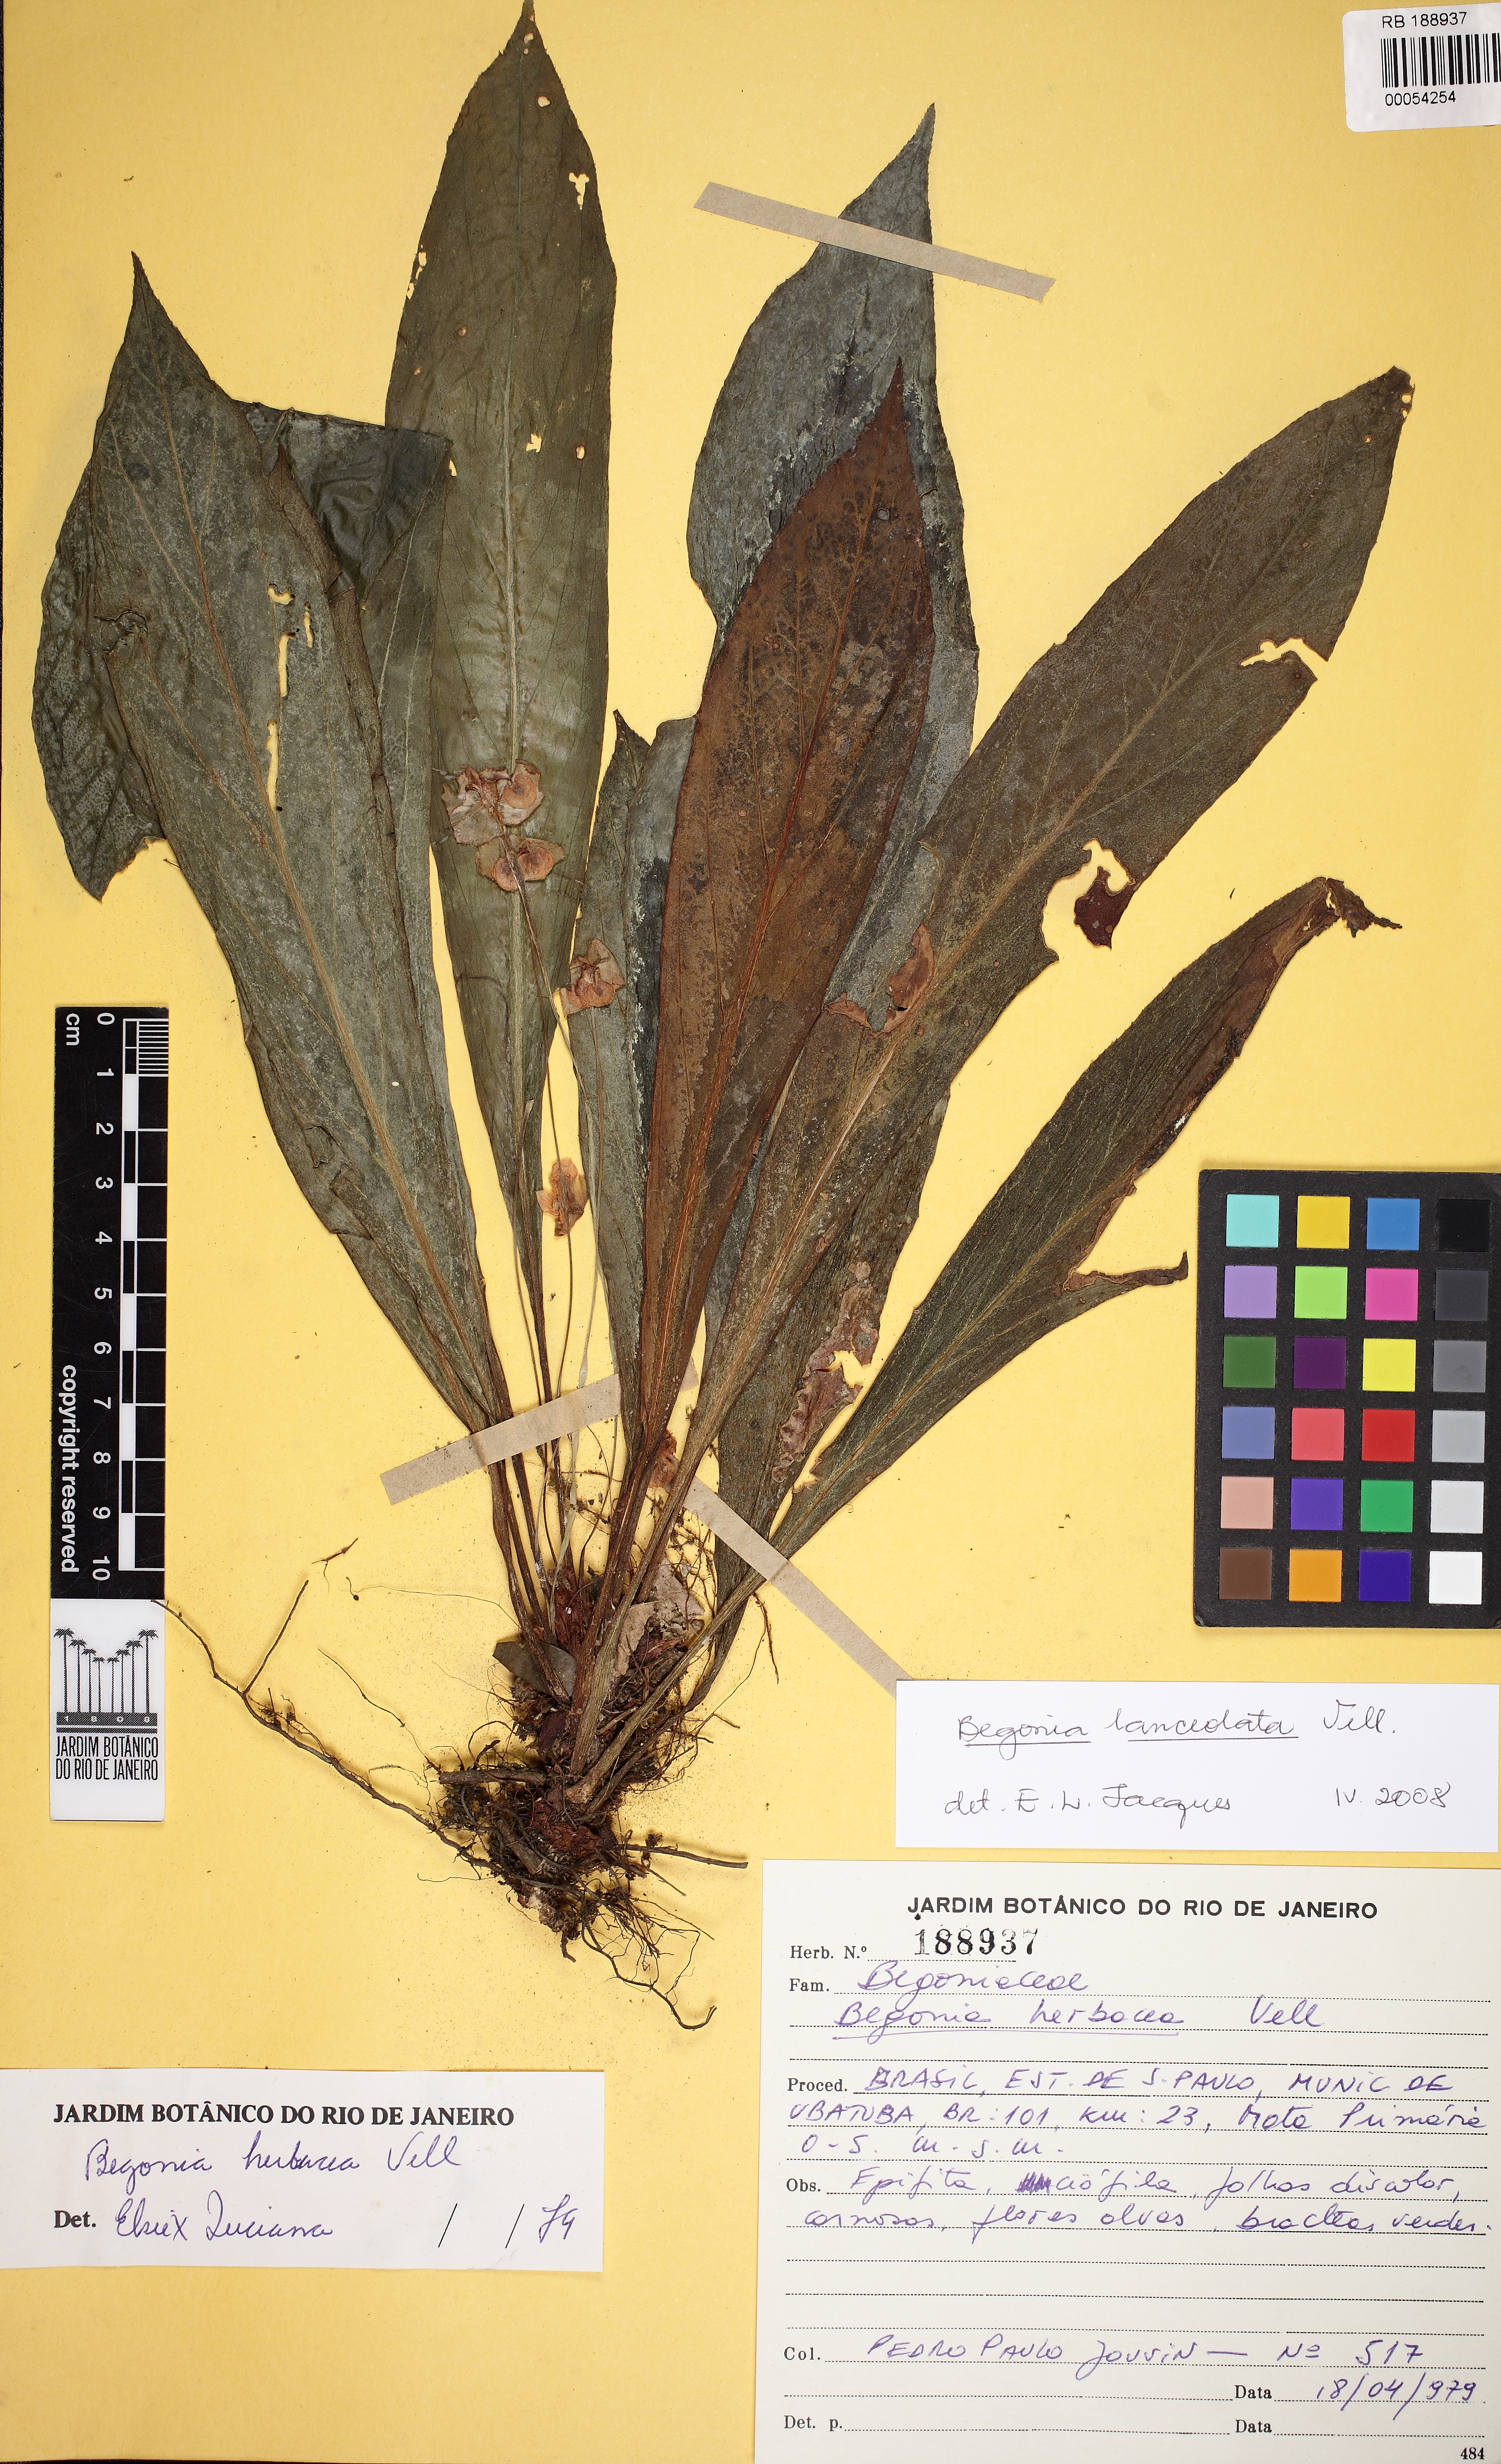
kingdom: Plantae
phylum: Tracheophyta
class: Magnoliopsida
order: Cucurbitales
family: Begoniaceae
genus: Begonia
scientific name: Begonia lanceolata
